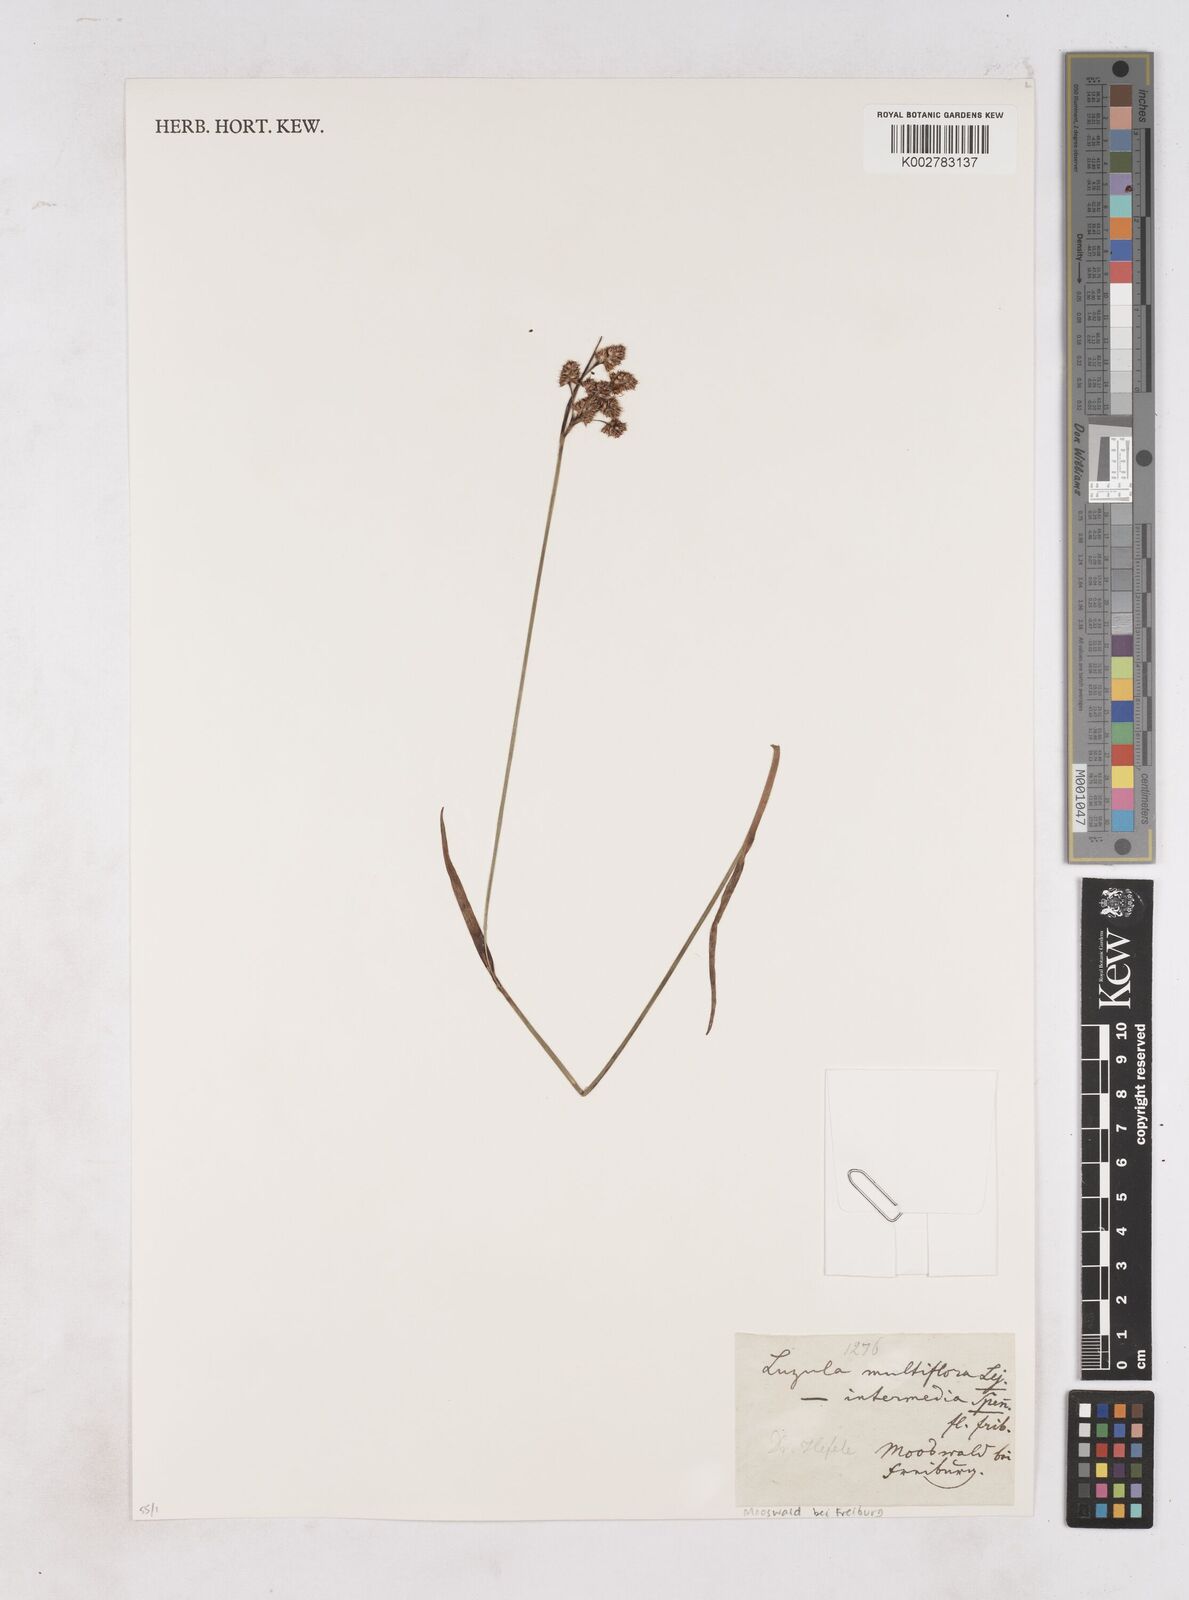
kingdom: Plantae
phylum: Tracheophyta
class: Liliopsida
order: Poales
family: Juncaceae
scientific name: Juncaceae
